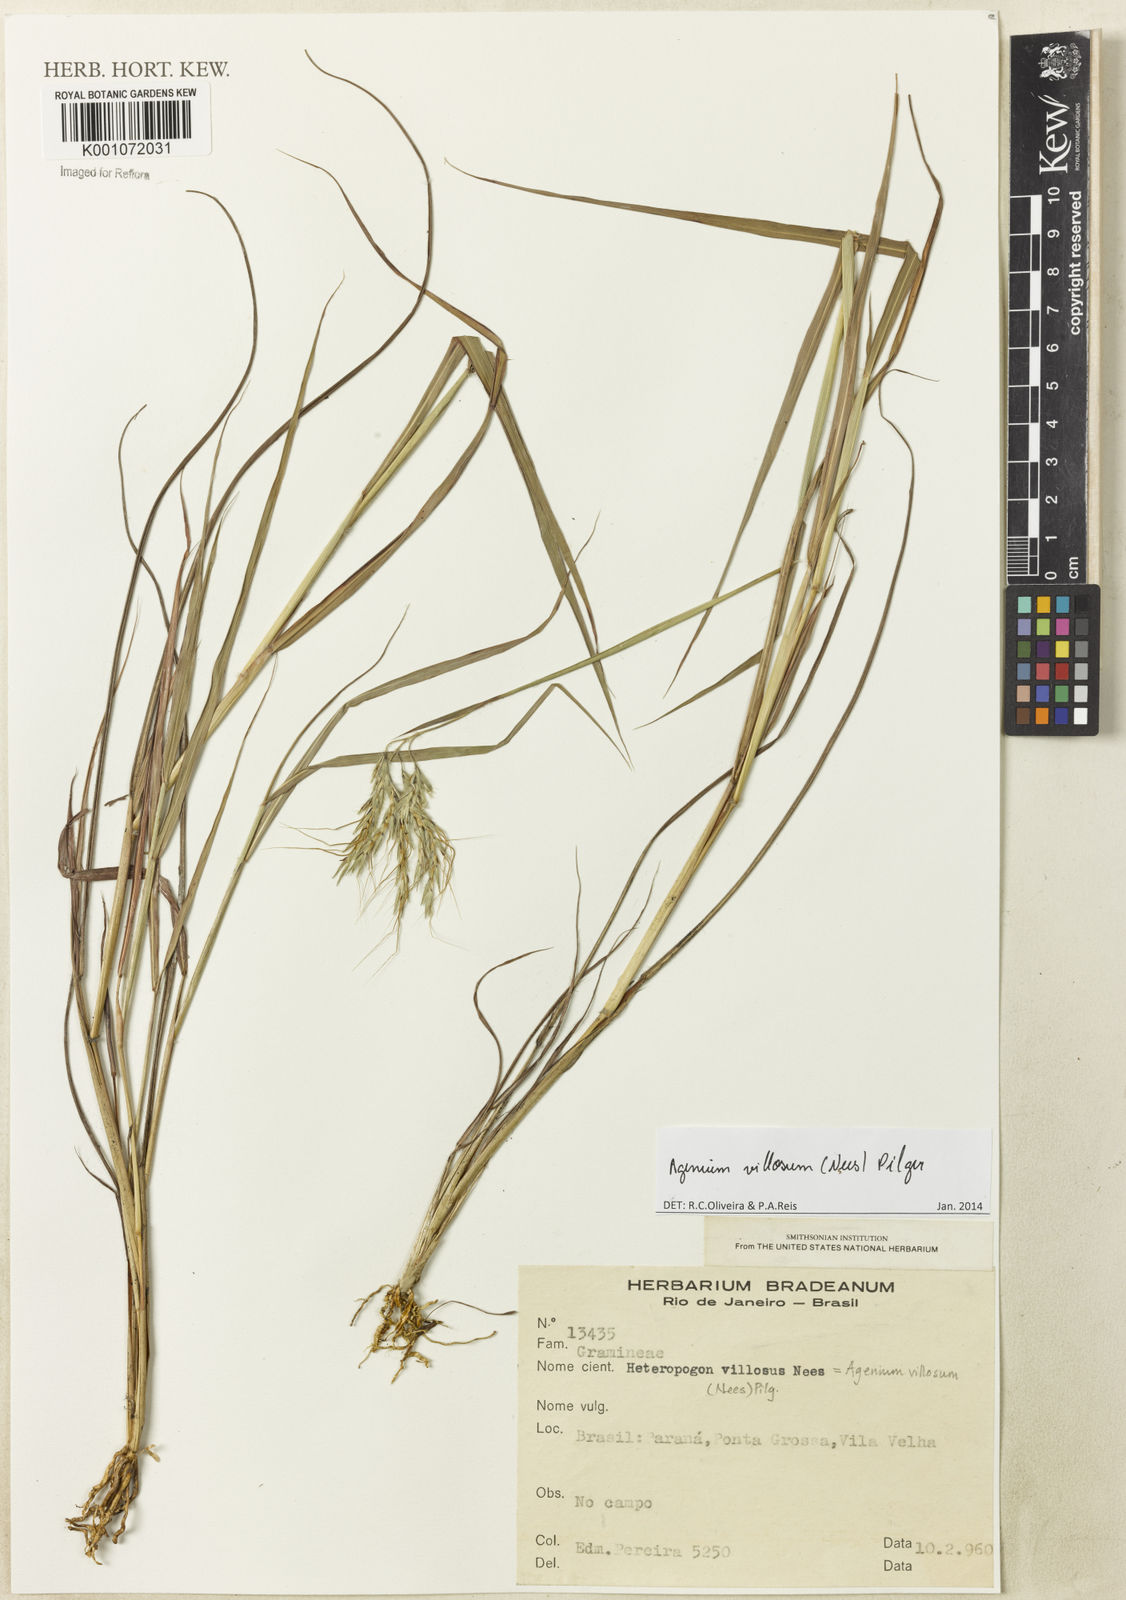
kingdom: Plantae
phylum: Tracheophyta
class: Liliopsida
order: Poales
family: Poaceae
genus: Agenium
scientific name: Agenium villosum
